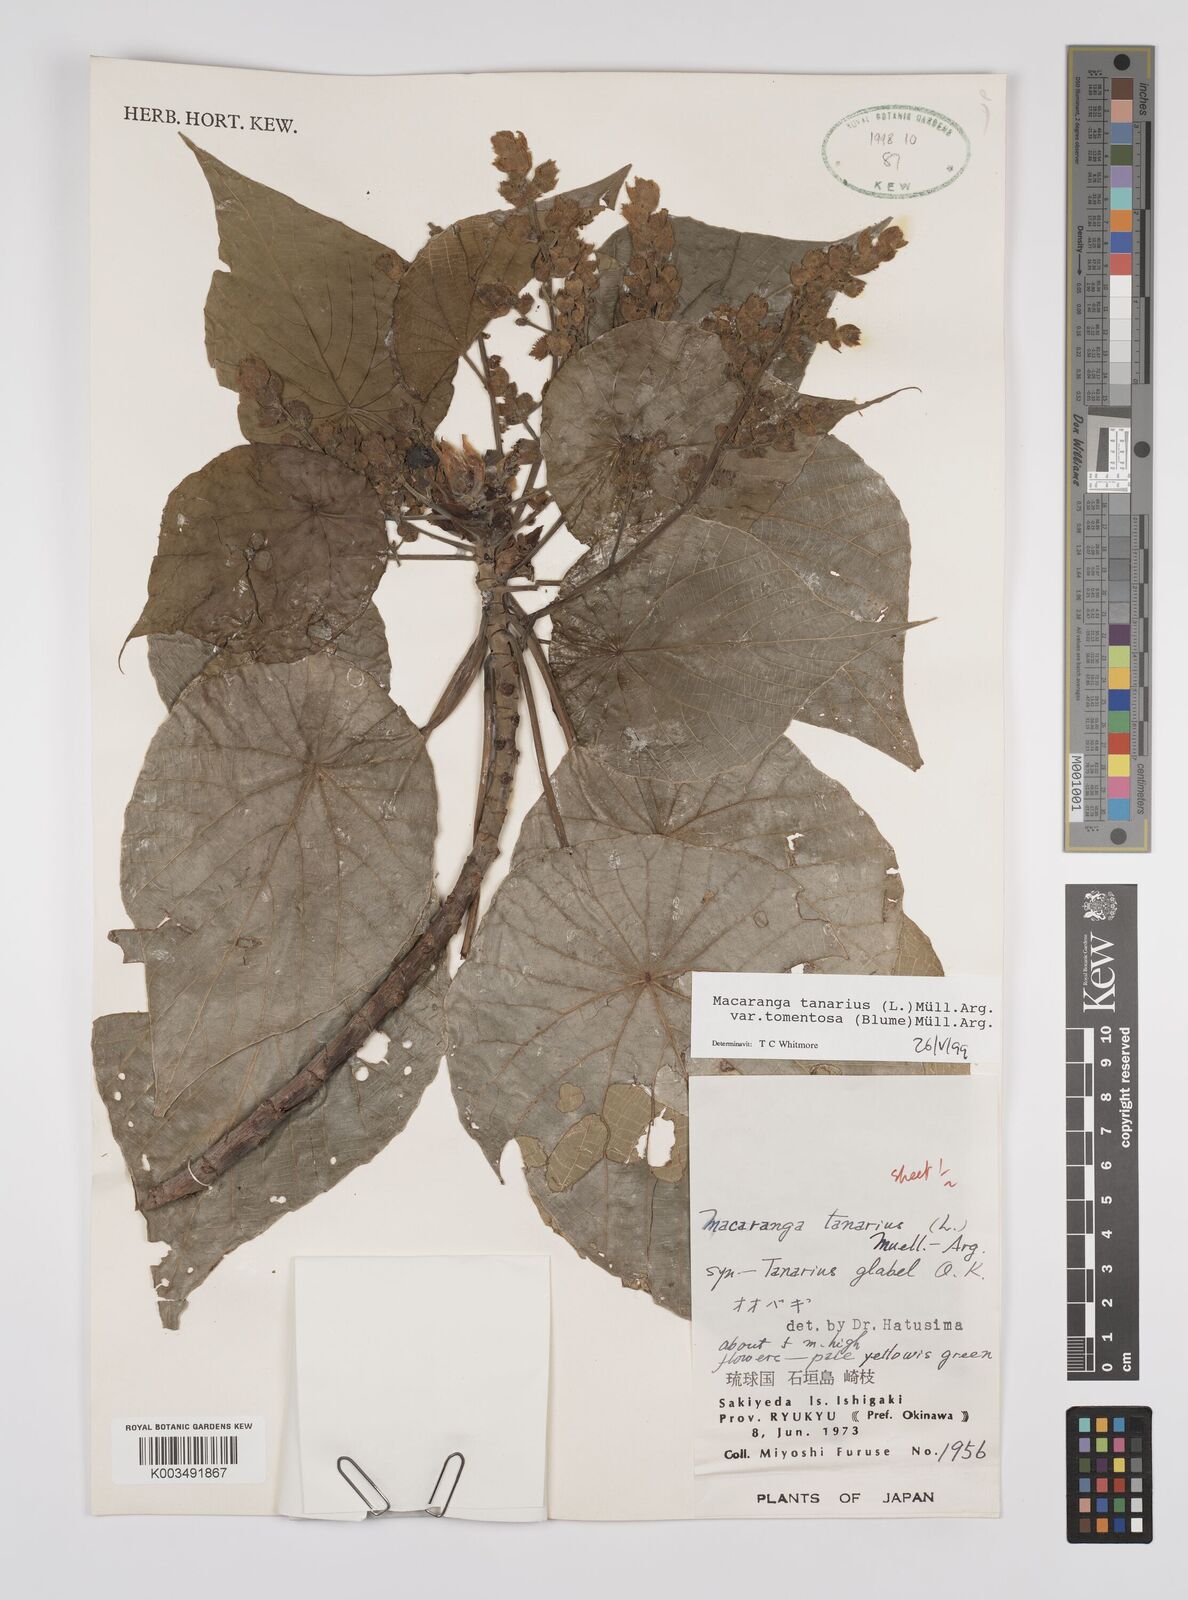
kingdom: Plantae
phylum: Tracheophyta
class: Magnoliopsida
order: Malpighiales
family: Euphorbiaceae
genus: Macaranga
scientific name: Macaranga tanarius
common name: Parasol leaf tree
